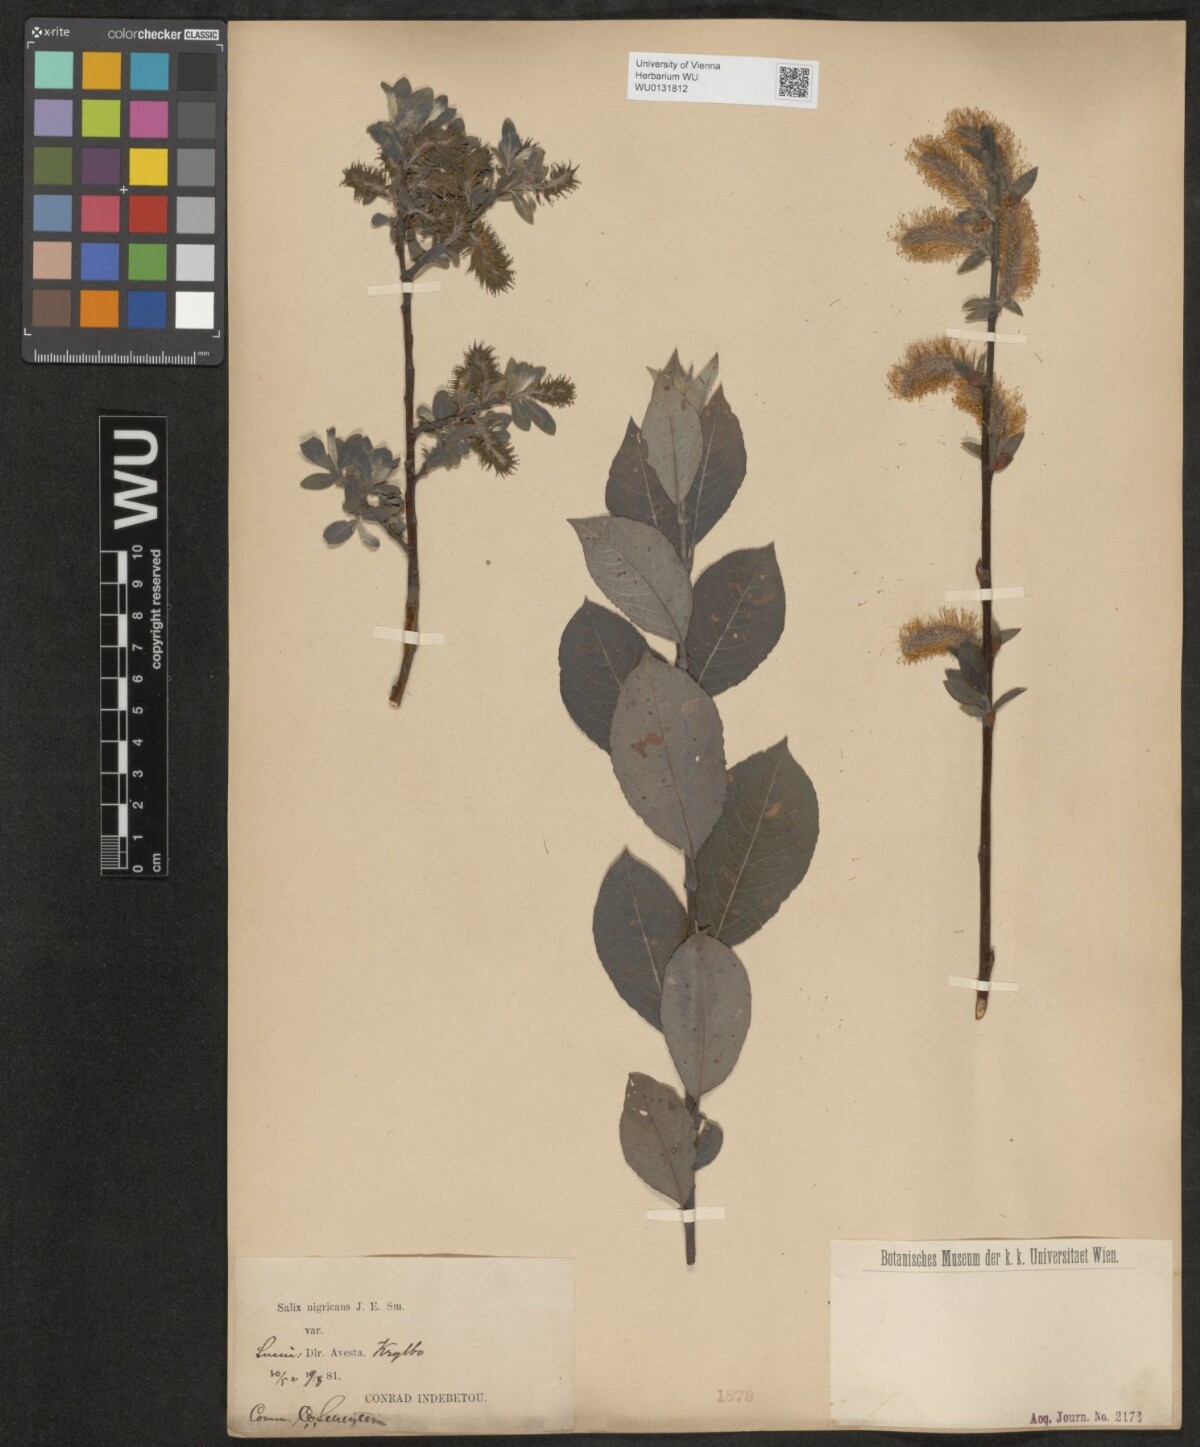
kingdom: Plantae
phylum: Tracheophyta
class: Magnoliopsida
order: Malpighiales
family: Salicaceae
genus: Salix
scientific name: Salix myrsinifolia
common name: Dark-leaved willow
